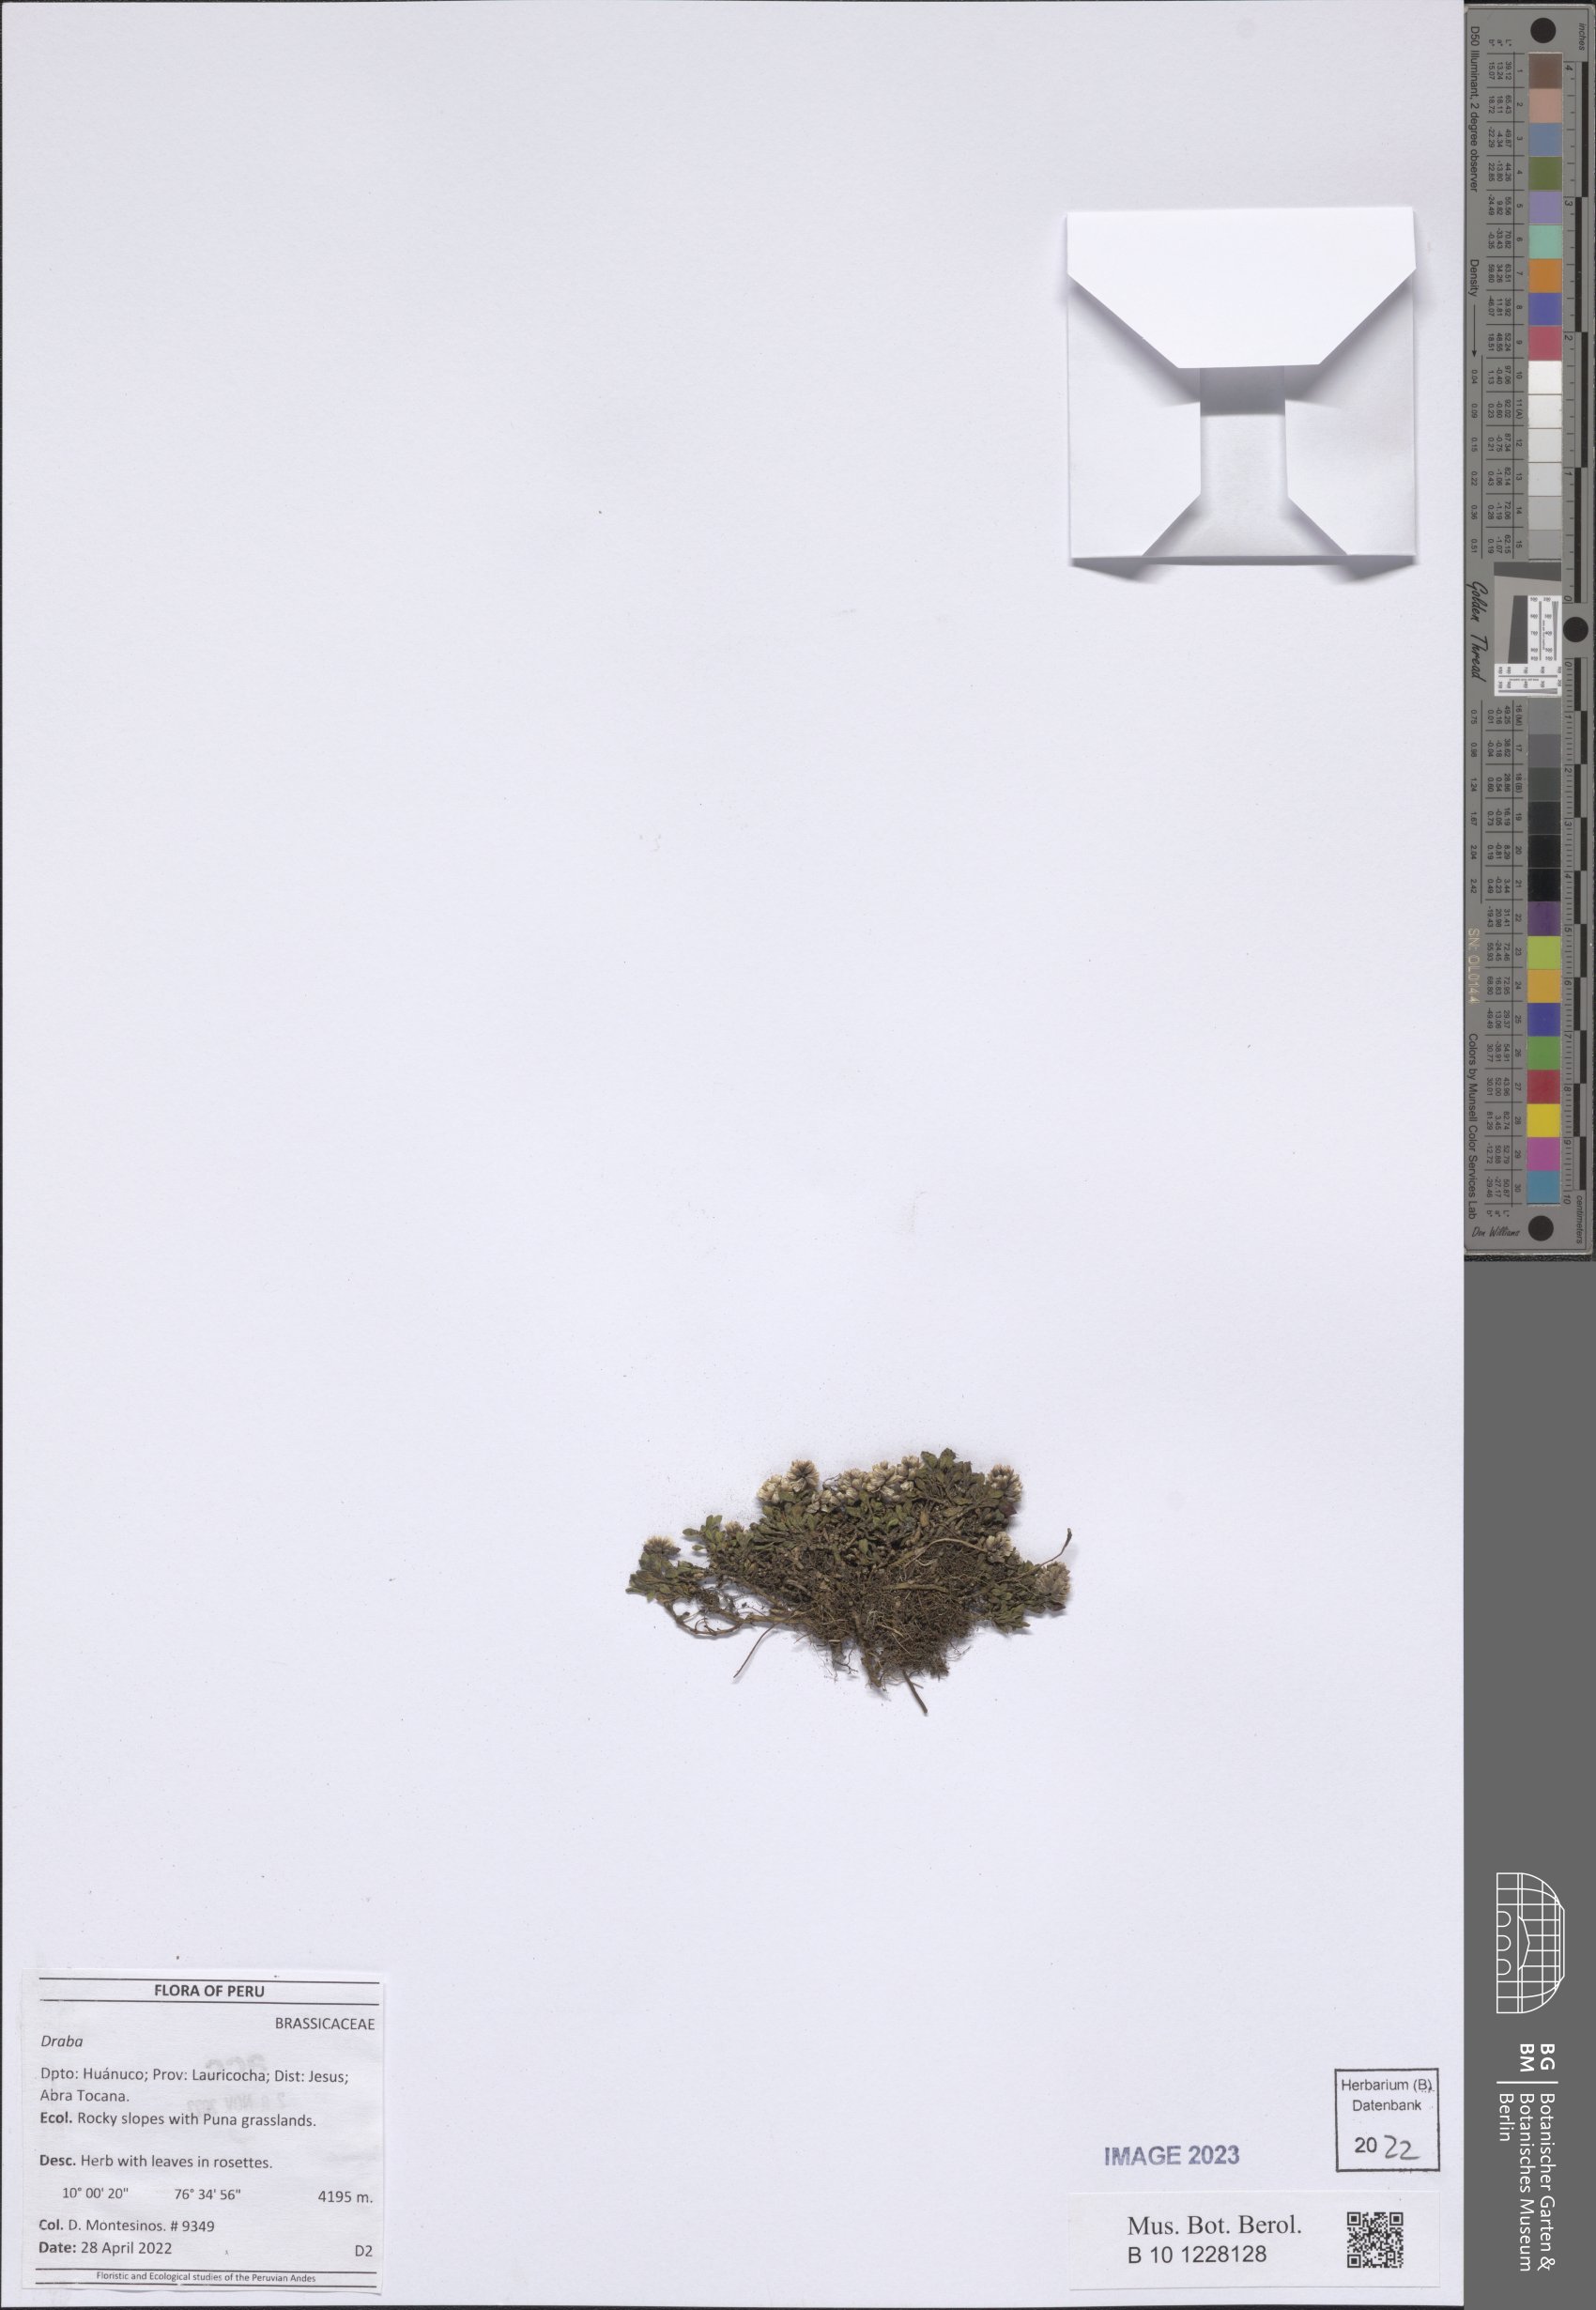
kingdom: Plantae
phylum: Tracheophyta
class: Magnoliopsida
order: Brassicales
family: Brassicaceae
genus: Draba
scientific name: Draba
